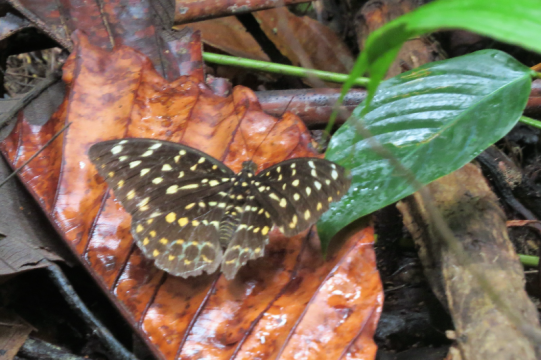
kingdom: Animalia
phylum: Arthropoda
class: Insecta
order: Lepidoptera
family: Nymphalidae
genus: Lexias
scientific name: Lexias dirtea
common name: Black-tipped Archduke
